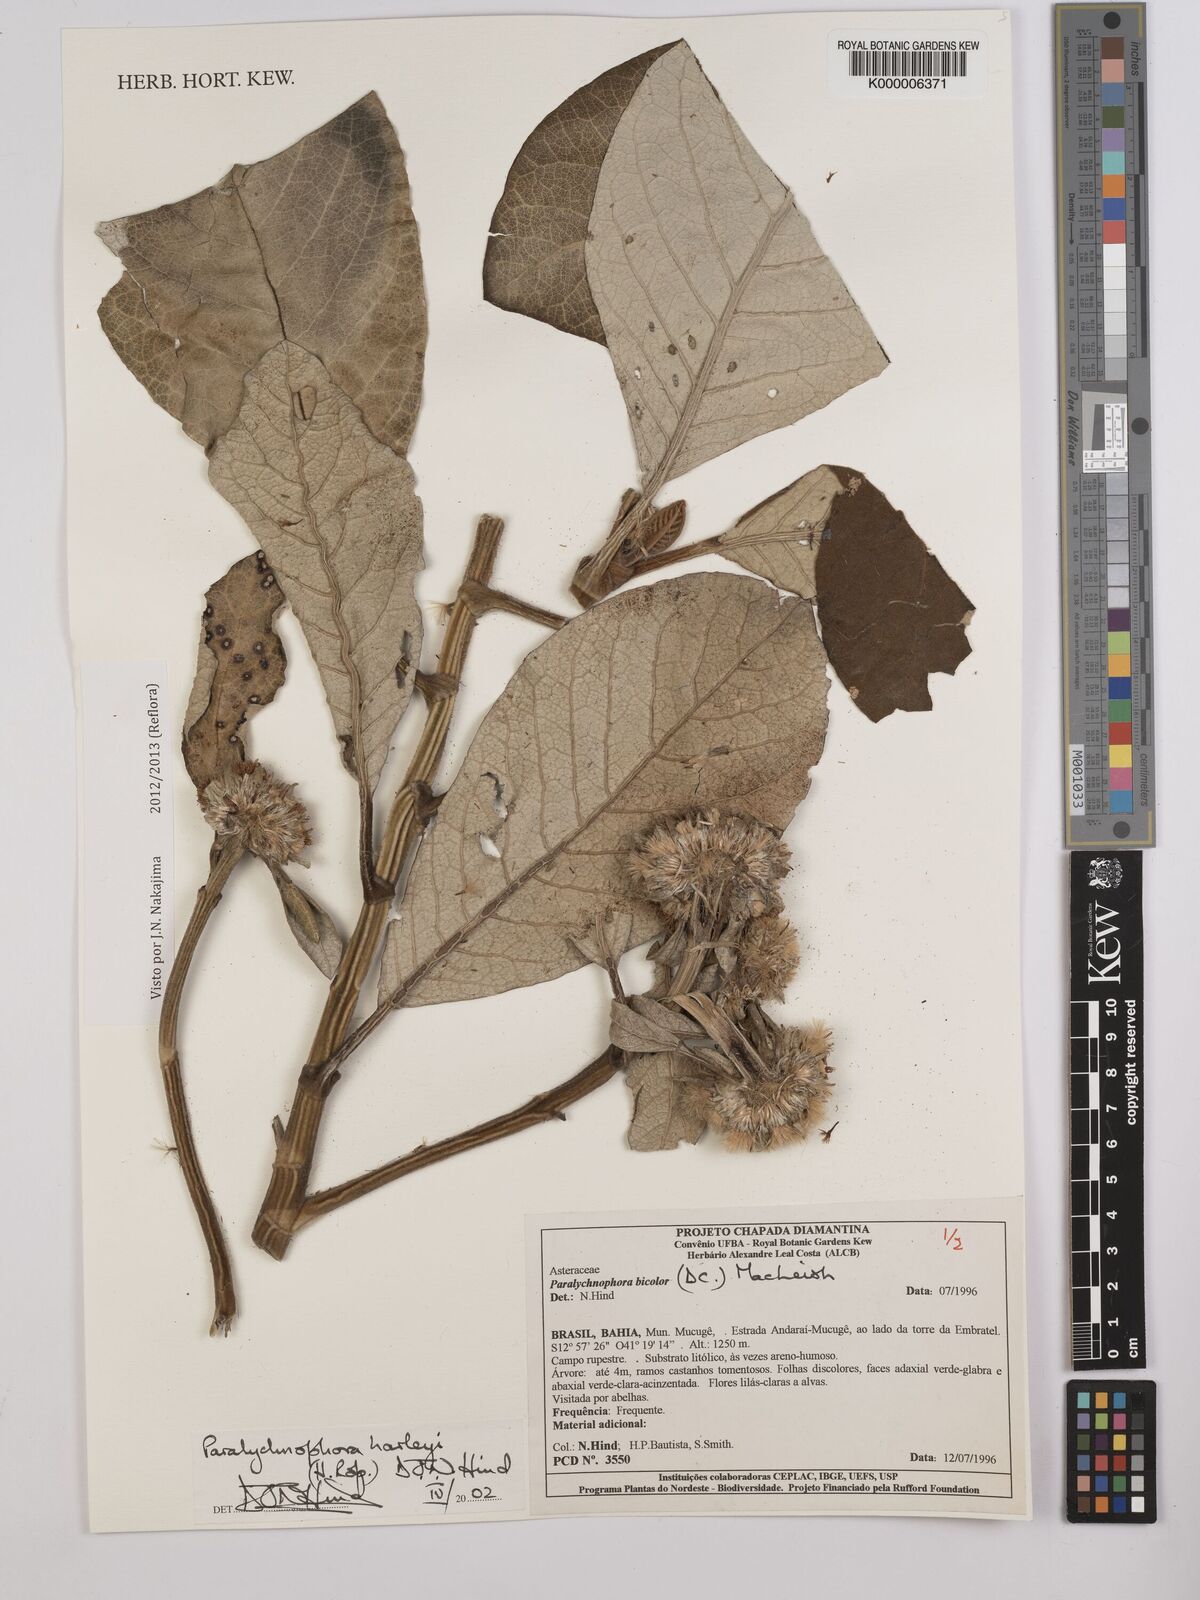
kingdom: Plantae
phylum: Tracheophyta
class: Magnoliopsida
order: Asterales
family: Asteraceae
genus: Paralychnophora
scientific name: Paralychnophora harleyi
